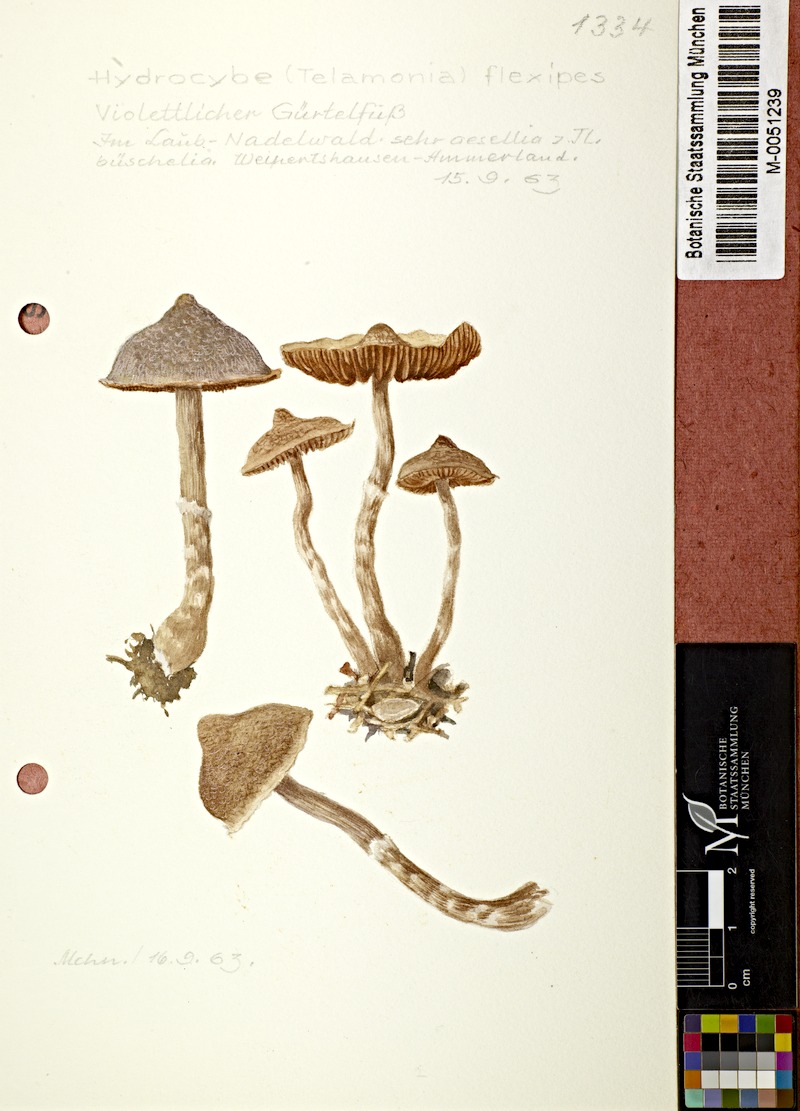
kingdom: Fungi
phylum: Basidiomycota
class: Agaricomycetes
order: Agaricales
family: Cortinariaceae
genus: Cortinarius
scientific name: Cortinarius flexipes
